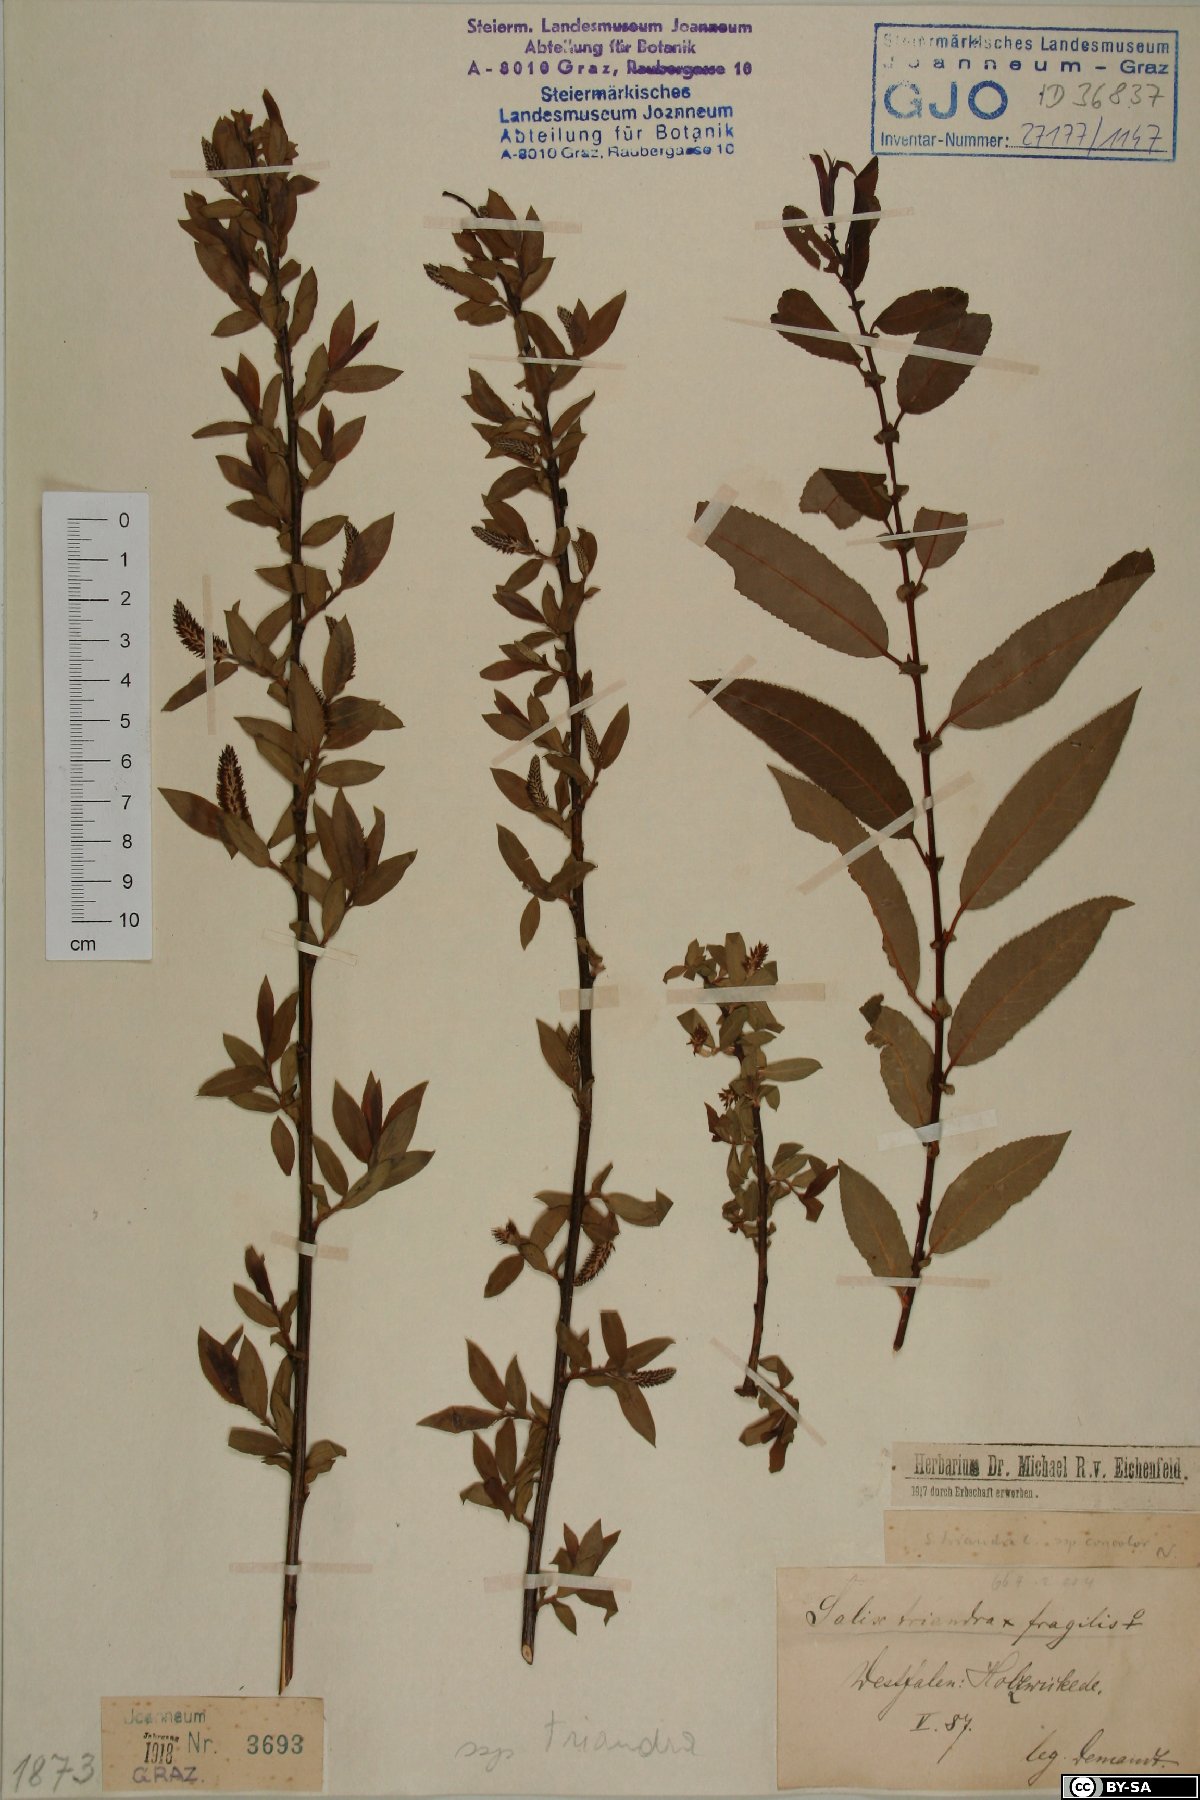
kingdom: Plantae
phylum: Tracheophyta
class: Magnoliopsida
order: Malpighiales
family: Salicaceae
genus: Salix
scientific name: Salix triandra
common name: Almond willow
